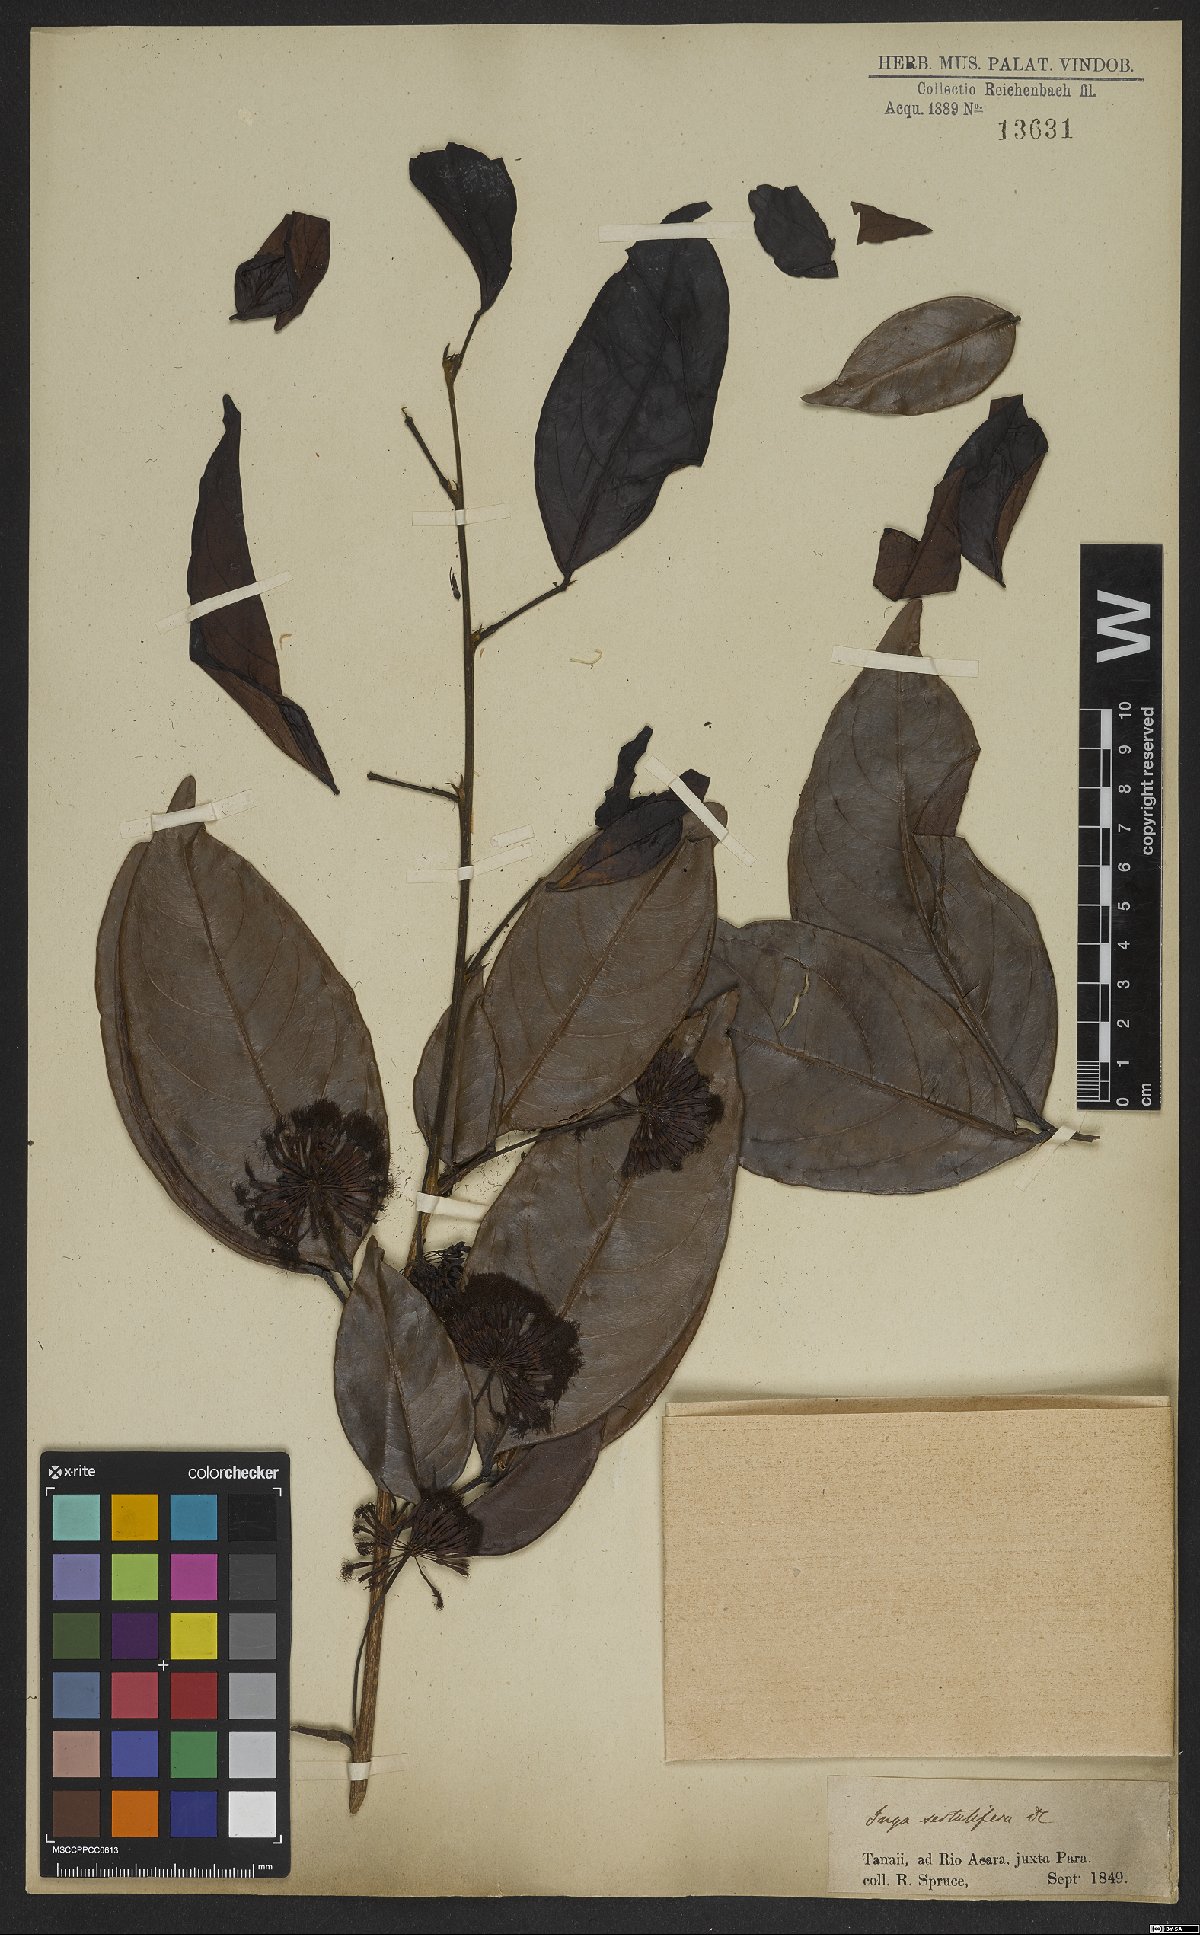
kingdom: Plantae
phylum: Tracheophyta
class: Magnoliopsida
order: Fabales
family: Fabaceae
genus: Inga
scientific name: Inga sertulifera
